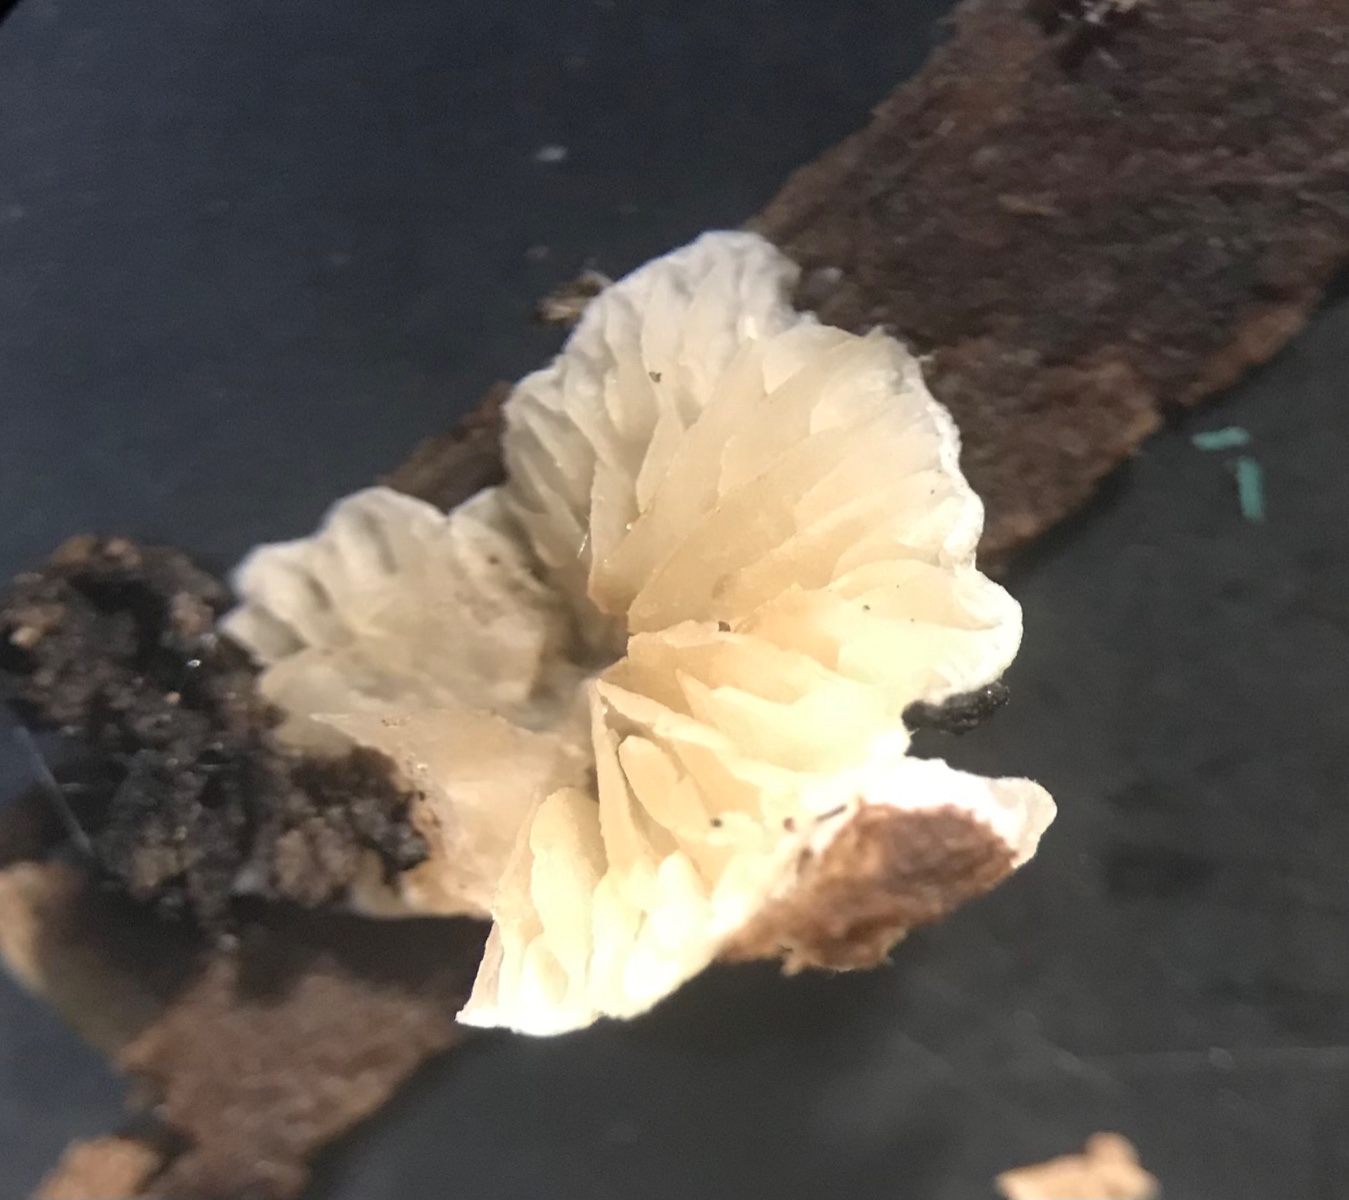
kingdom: Fungi
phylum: Basidiomycota
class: Agaricomycetes
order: Agaricales
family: Crepidotaceae
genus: Crepidotus
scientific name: Crepidotus epibryus
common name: førne-muslingesvamp
